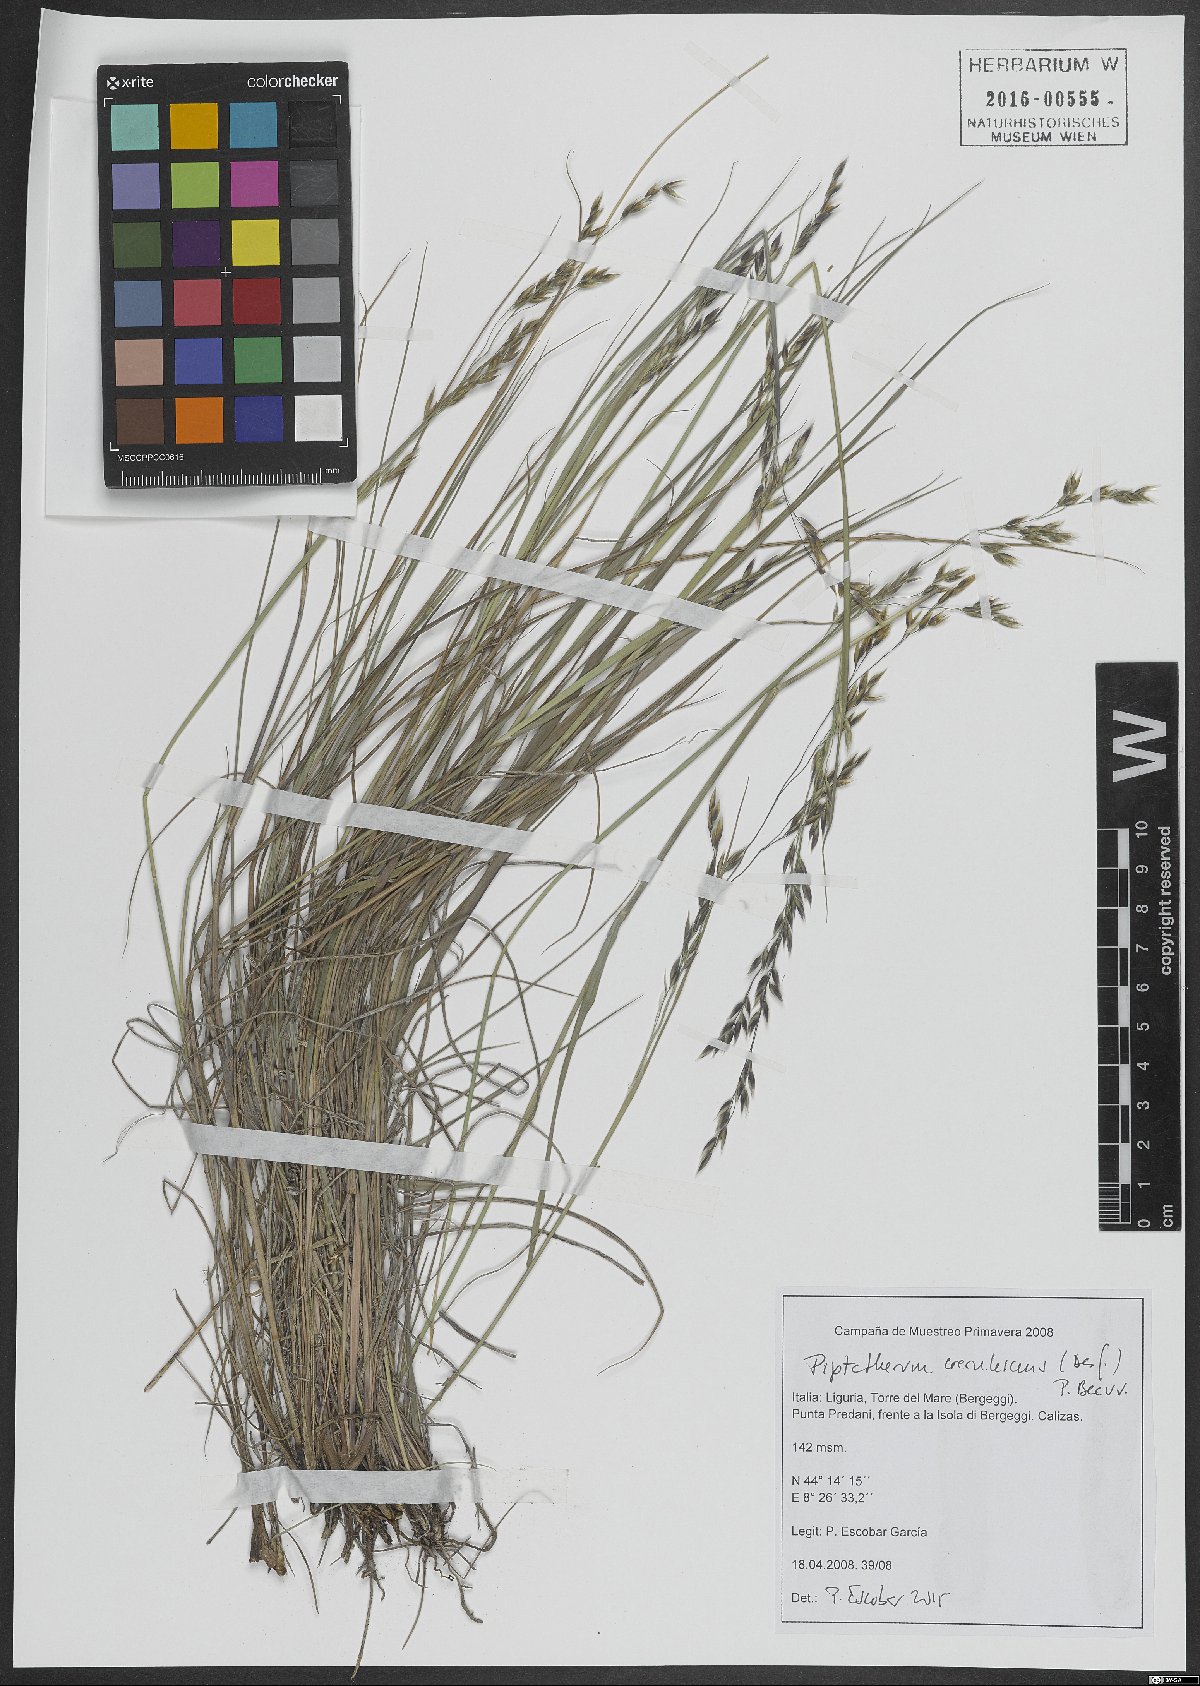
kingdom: Plantae
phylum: Tracheophyta
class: Liliopsida
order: Poales
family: Poaceae
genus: Piptatherum
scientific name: Piptatherum coerulescens
